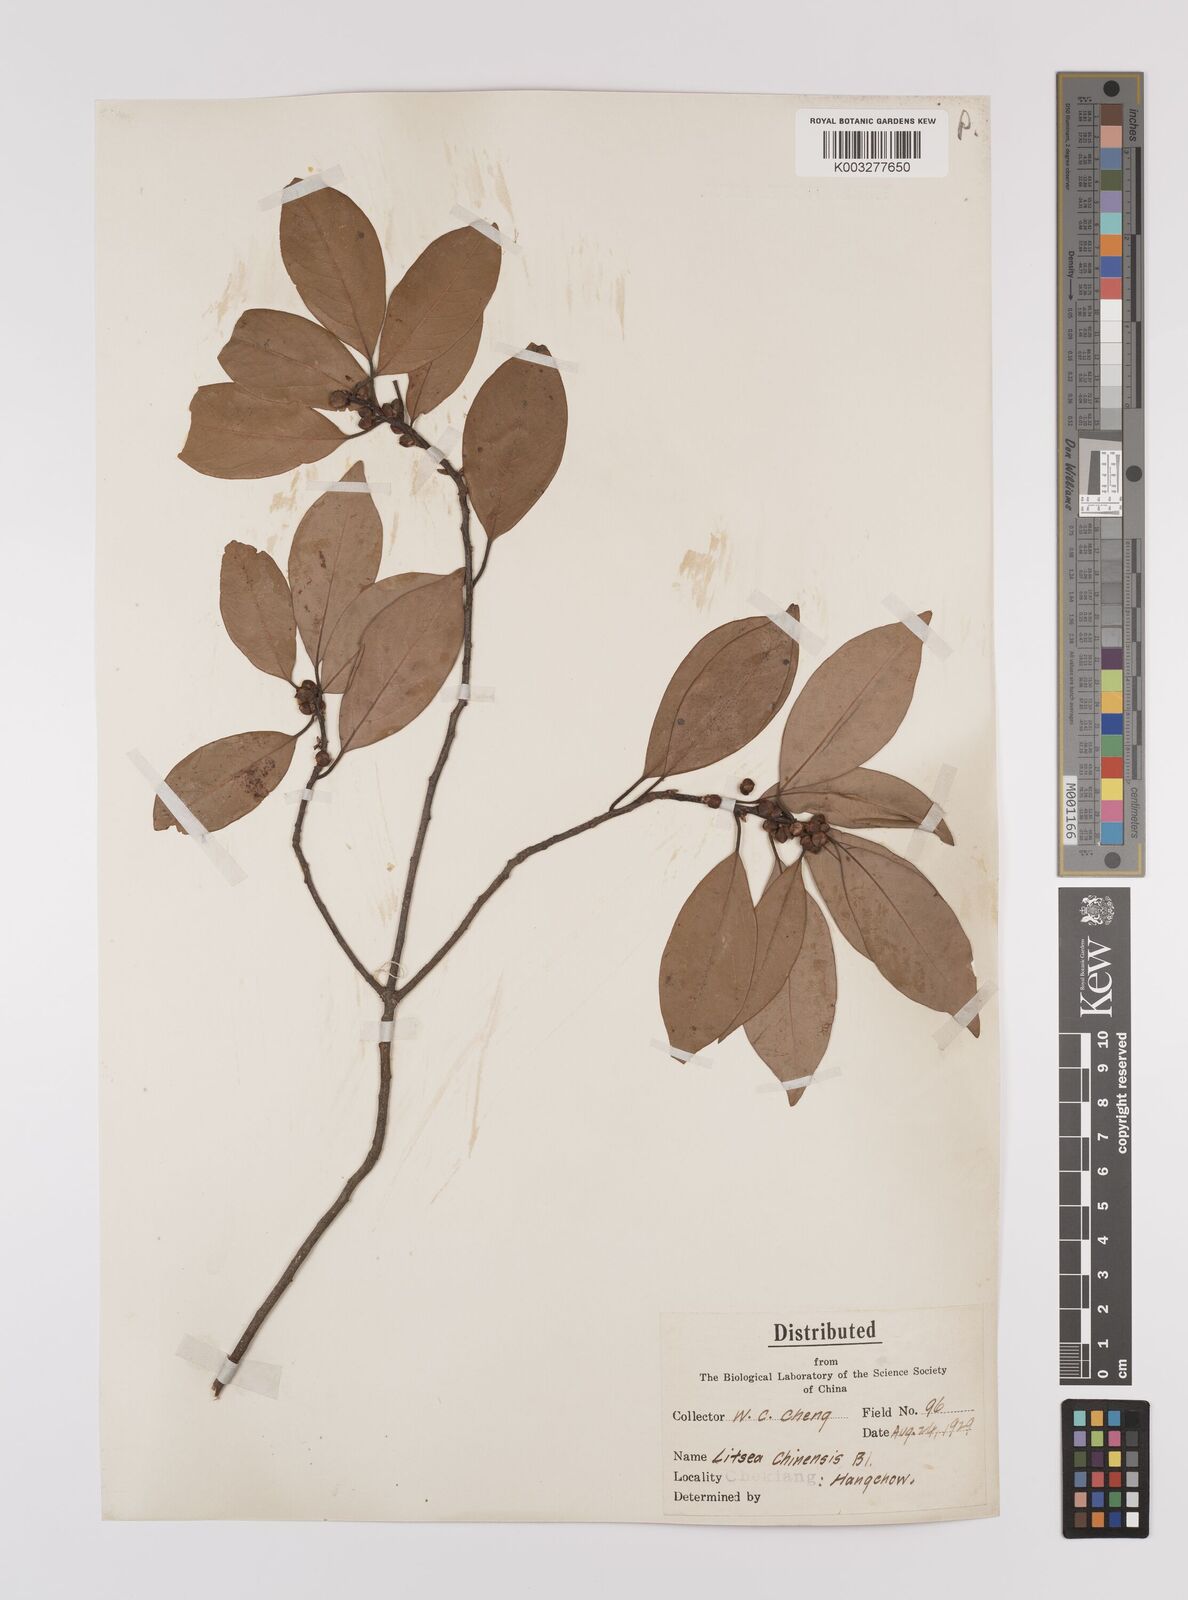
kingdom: Plantae
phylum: Tracheophyta
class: Magnoliopsida
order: Laurales
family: Lauraceae
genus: Litsea
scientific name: Litsea rotundifolia
